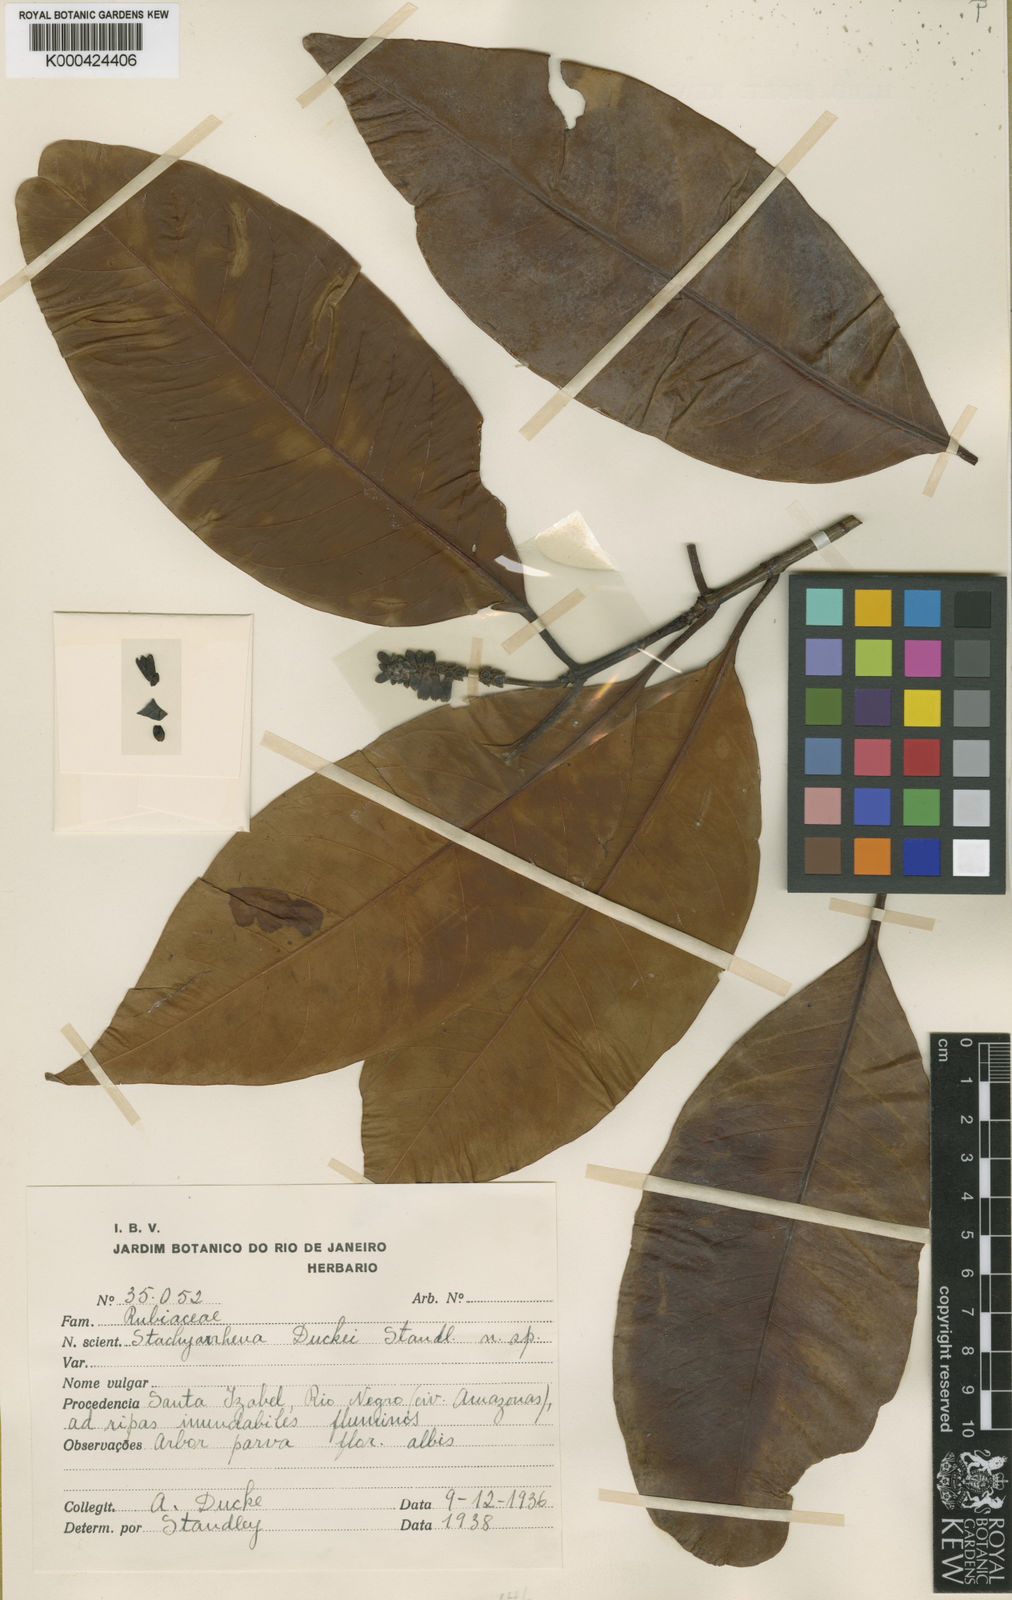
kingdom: Plantae
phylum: Tracheophyta
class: Magnoliopsida
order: Gentianales
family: Rubiaceae
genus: Stachyarrhena
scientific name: Stachyarrhena duckei
